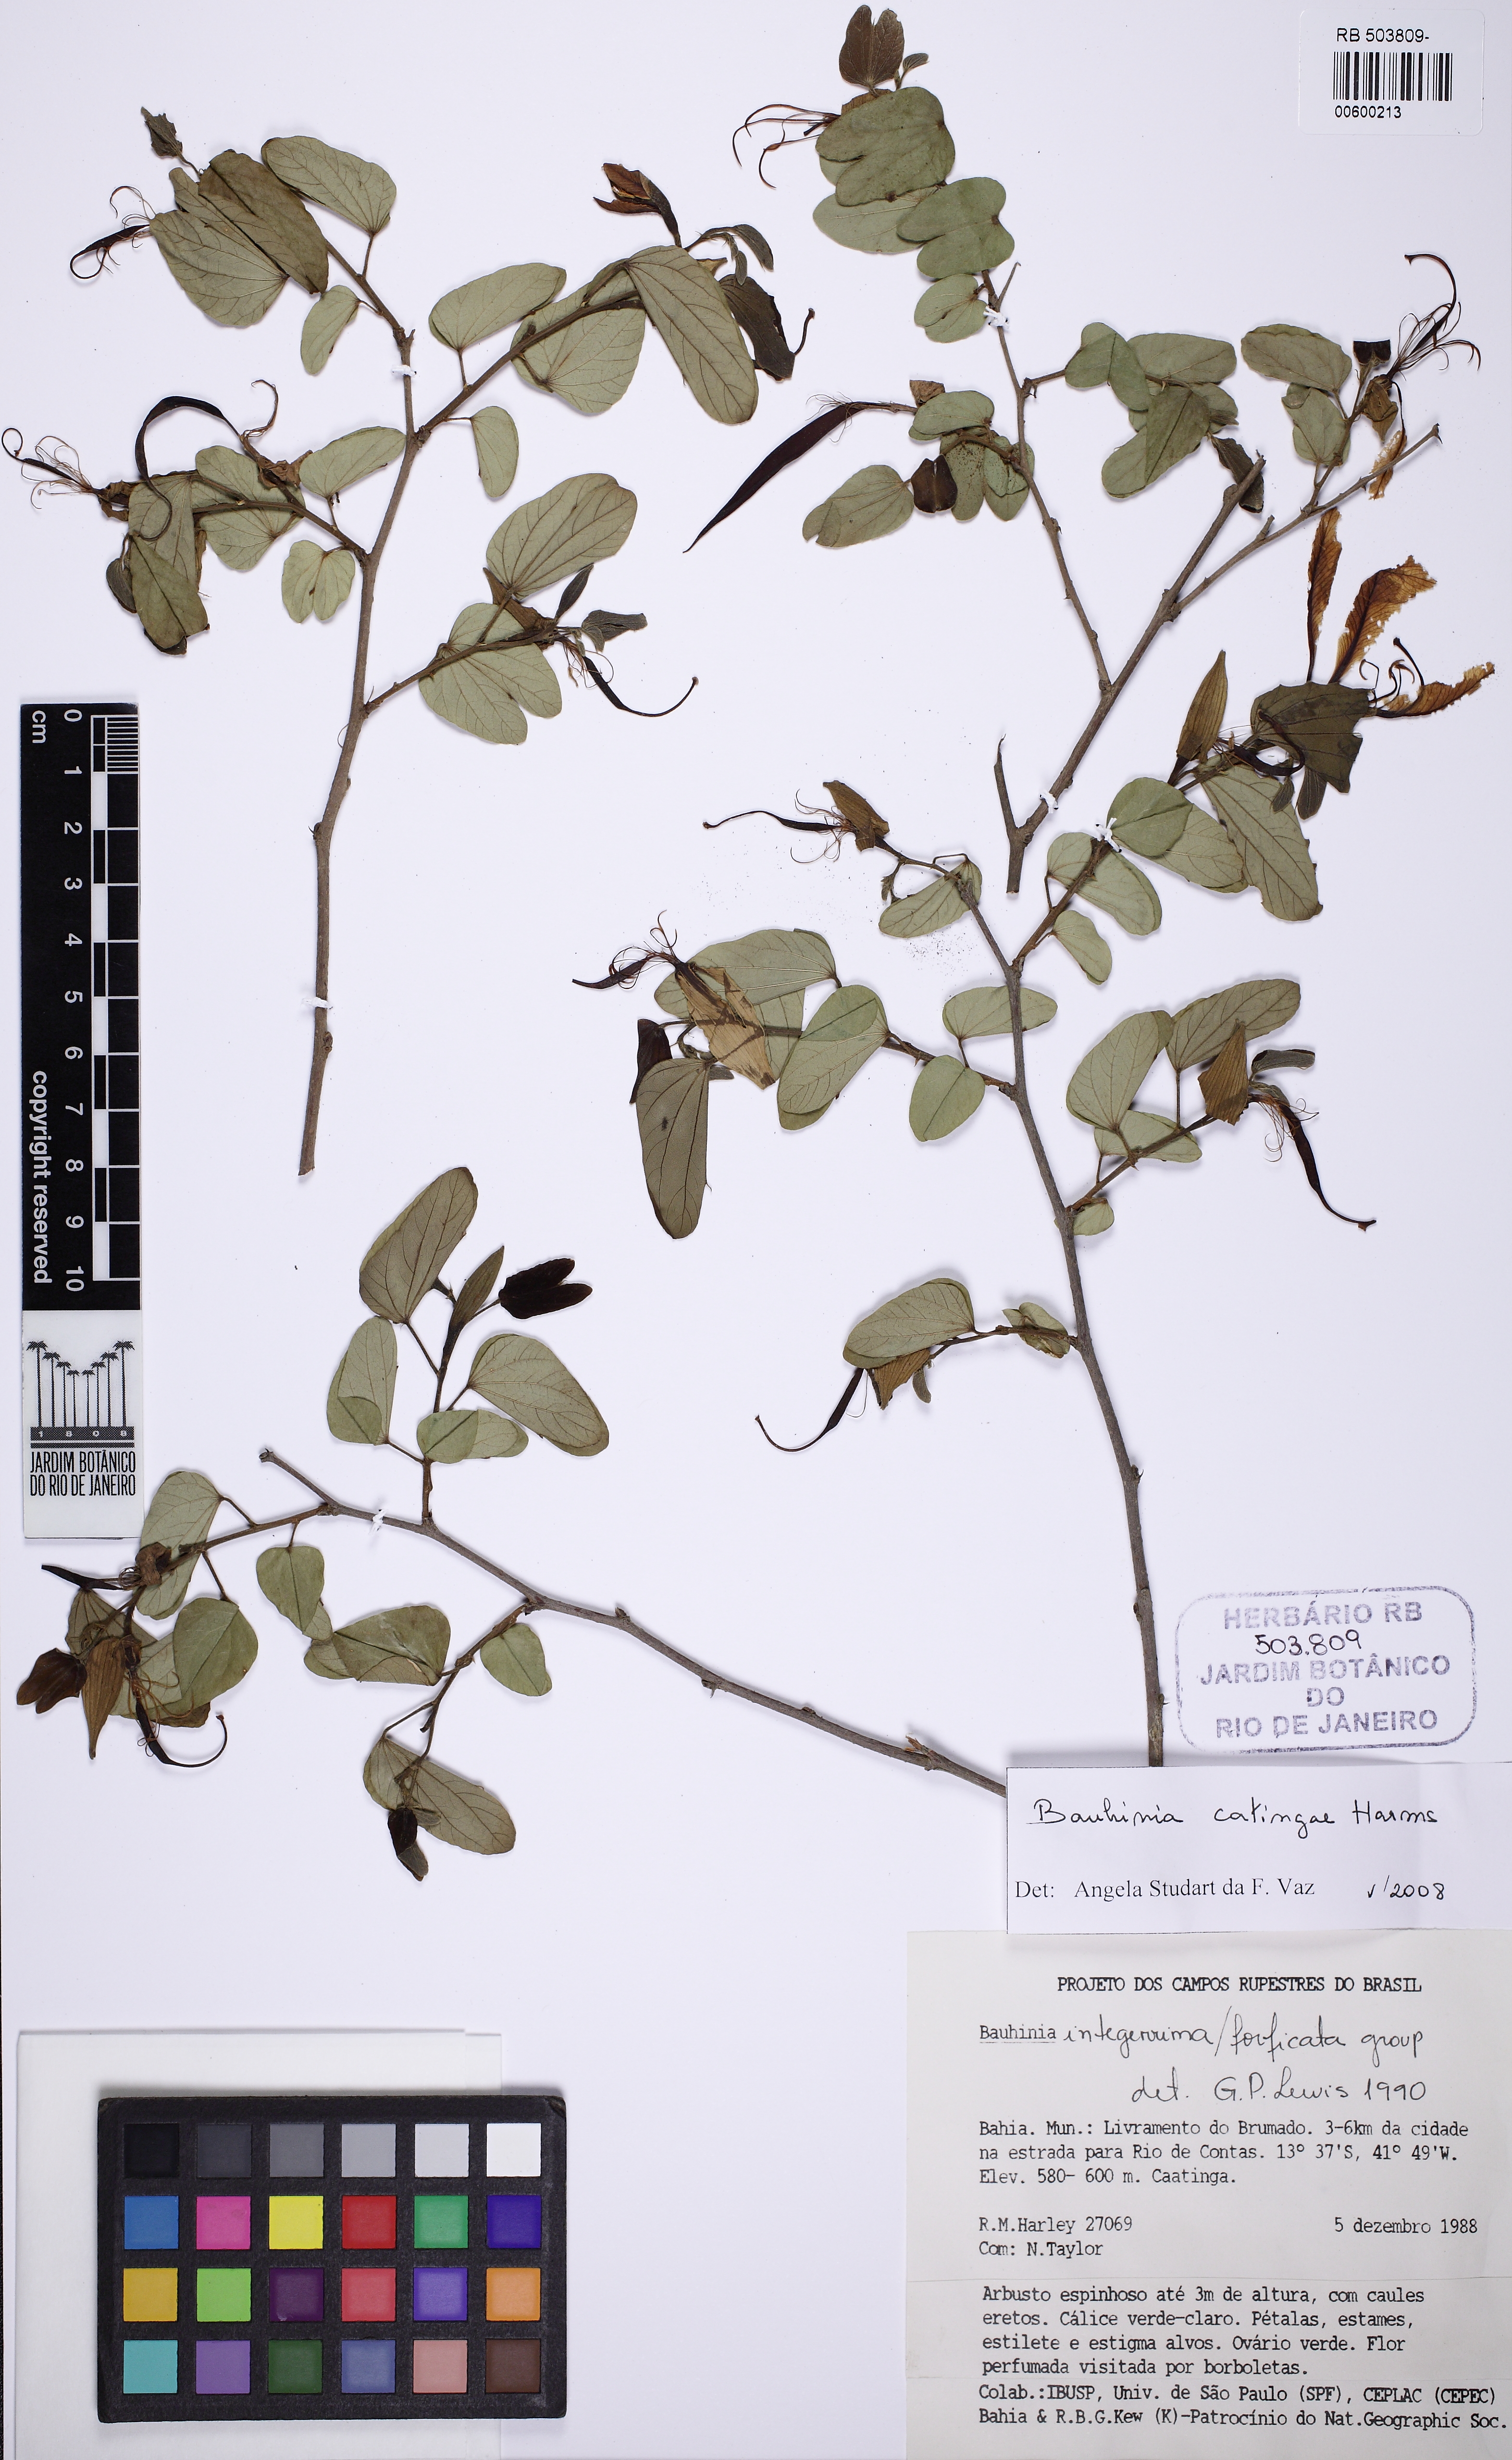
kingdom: Plantae
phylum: Tracheophyta
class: Magnoliopsida
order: Fabales
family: Fabaceae
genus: Bauhinia
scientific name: Bauhinia catingae
